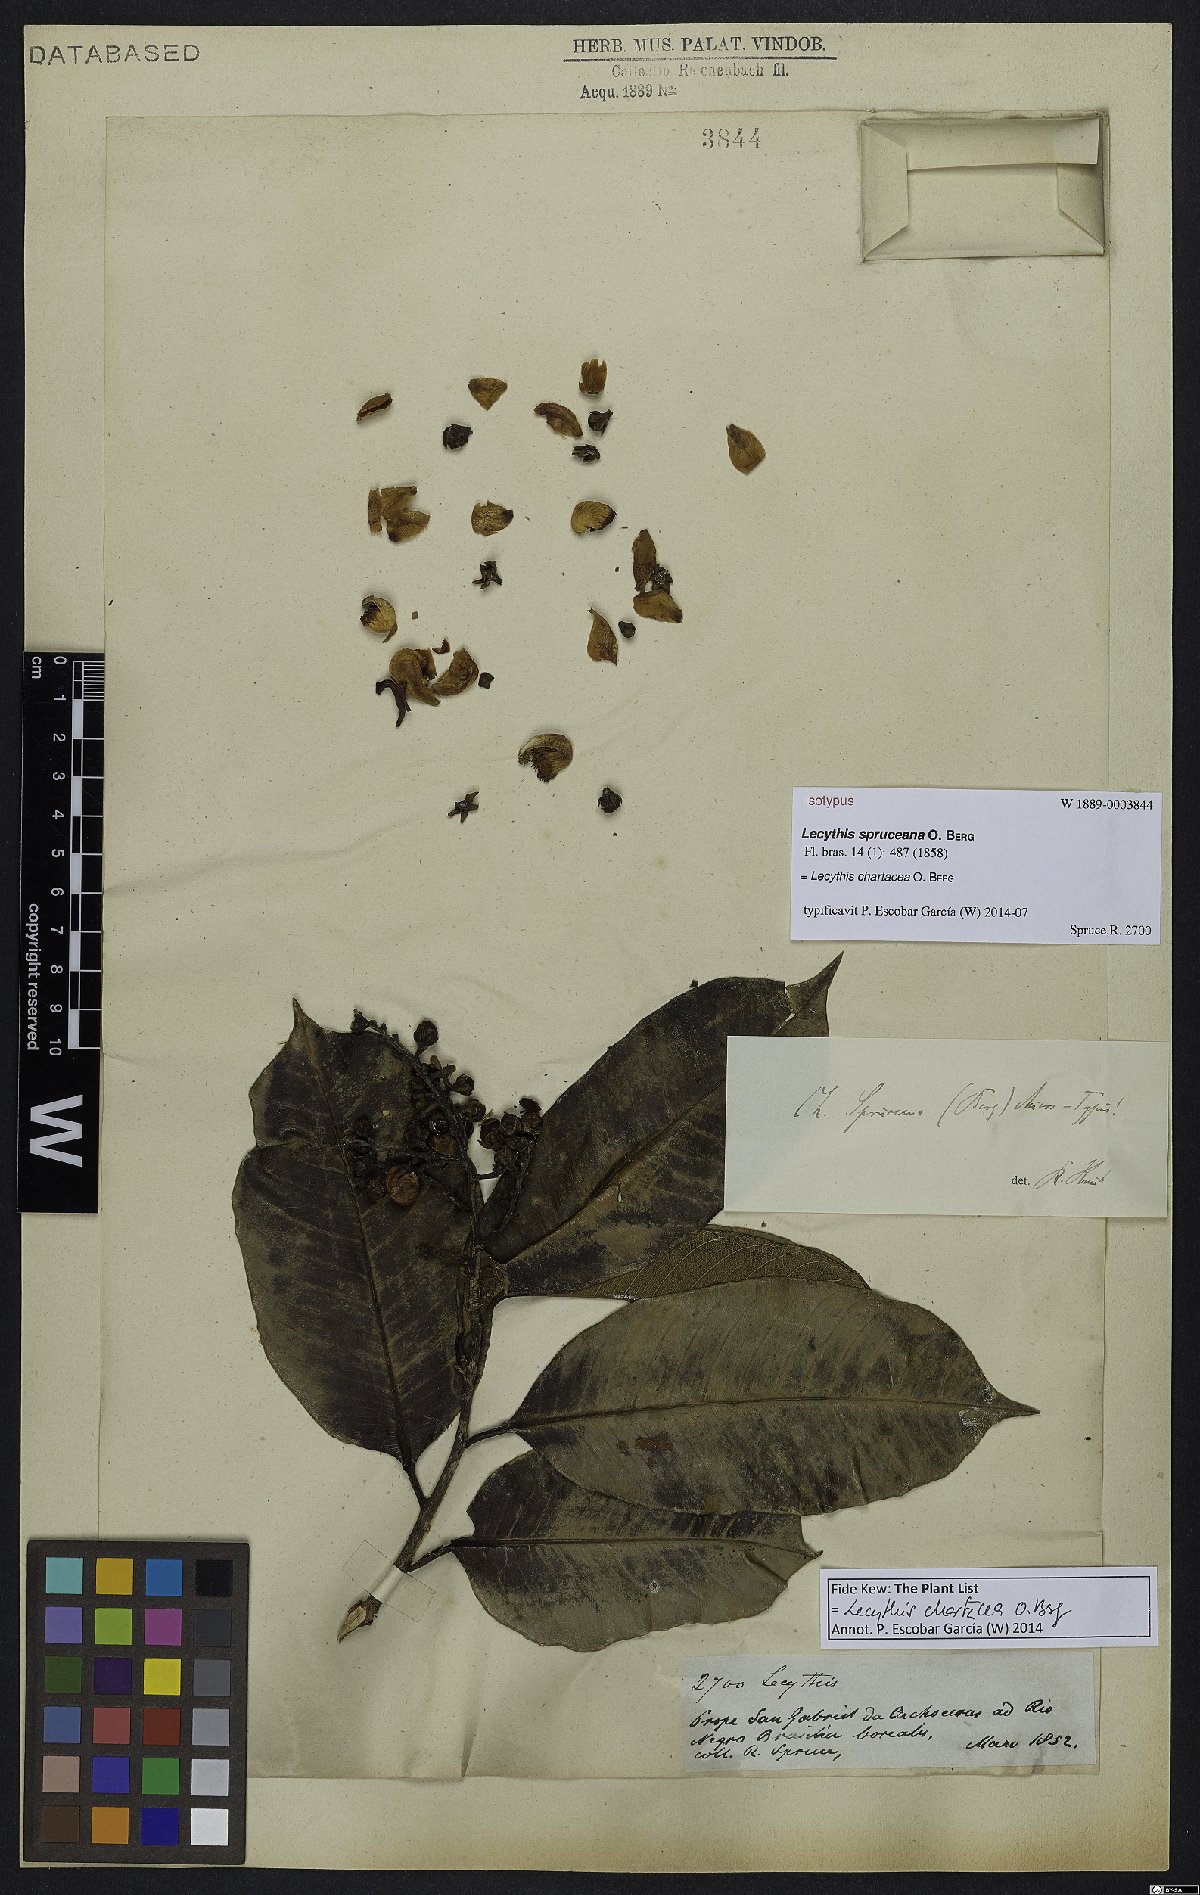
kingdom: Plantae
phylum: Tracheophyta
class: Magnoliopsida
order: Ericales
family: Lecythidaceae
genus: Lecythis
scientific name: Lecythis chartacea
